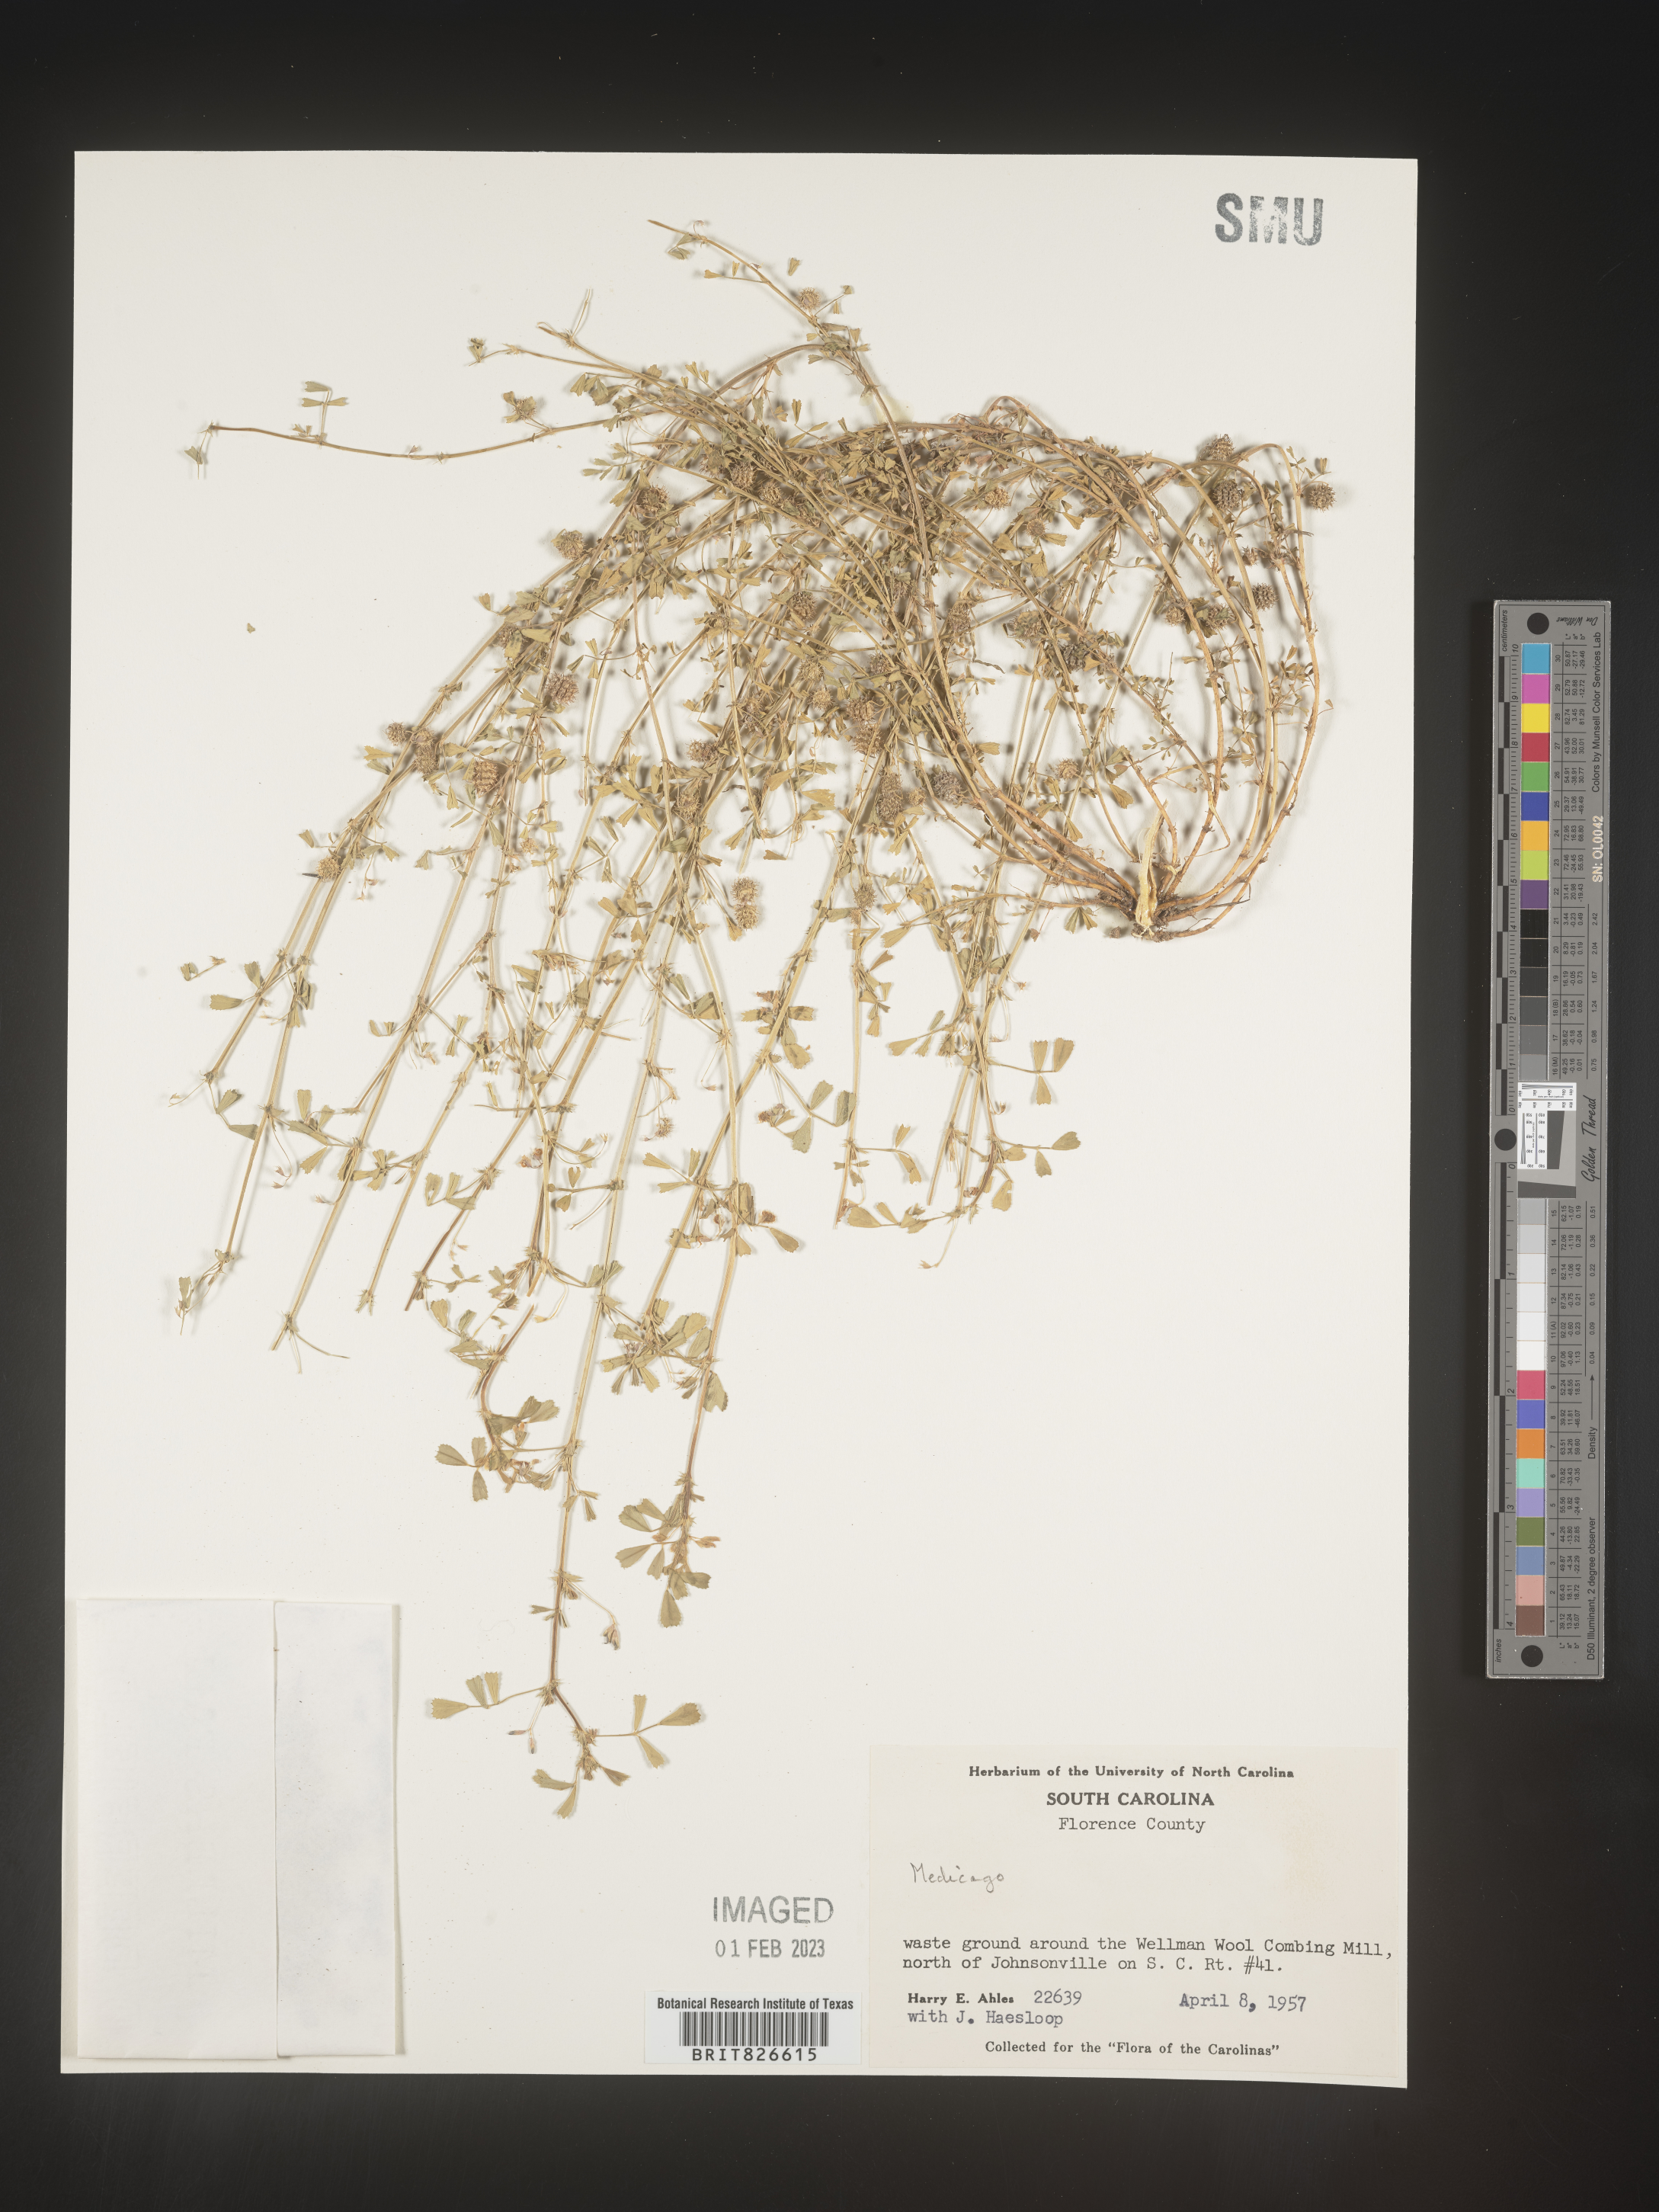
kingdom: Plantae
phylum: Tracheophyta
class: Magnoliopsida
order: Fabales
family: Fabaceae
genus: Medicago
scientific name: Medicago
